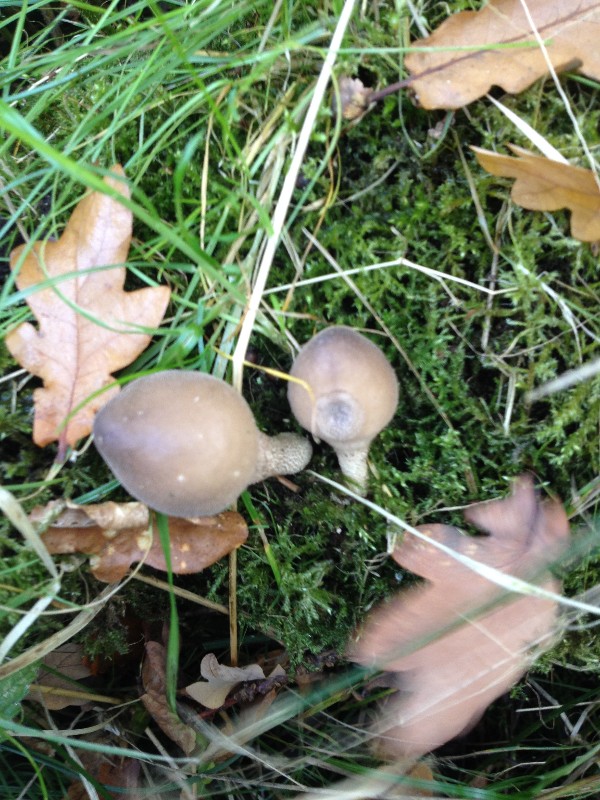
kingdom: Fungi
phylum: Basidiomycota
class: Agaricomycetes
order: Agaricales
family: Lycoperdaceae
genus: Apioperdon
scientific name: Apioperdon pyriforme
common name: pære-støvbold
